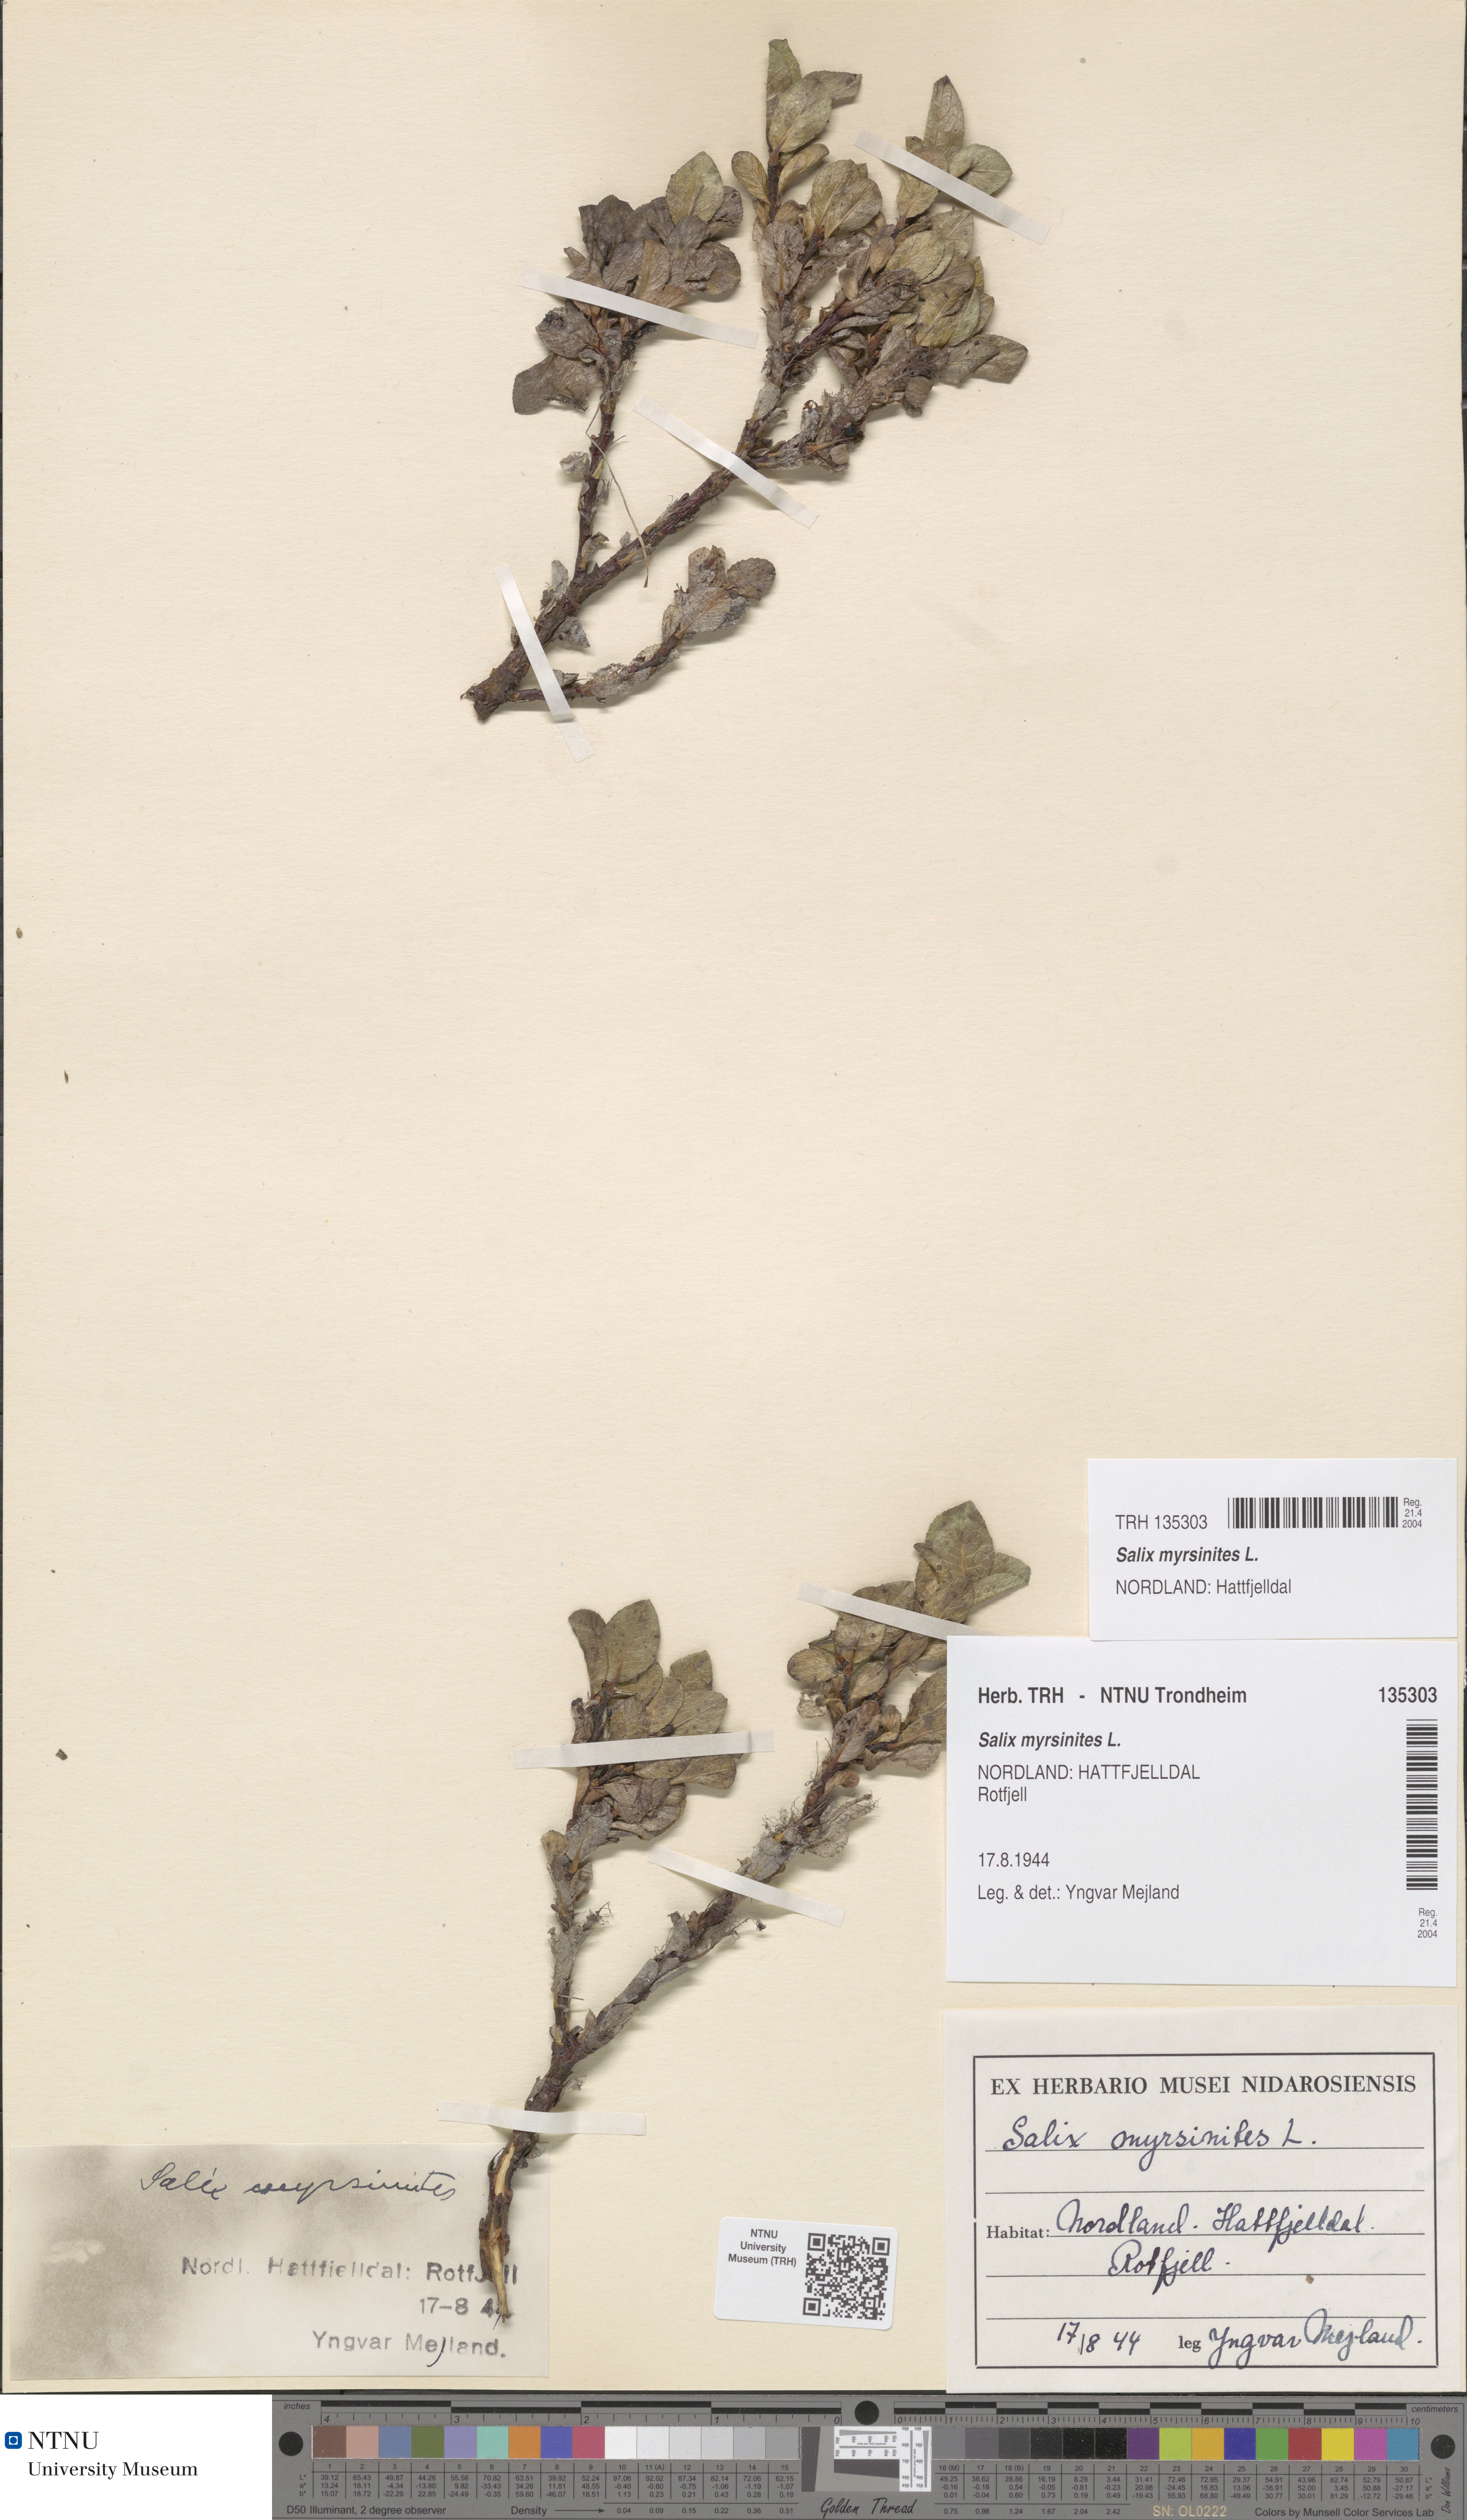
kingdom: Plantae
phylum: Tracheophyta
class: Magnoliopsida
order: Malpighiales
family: Salicaceae
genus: Salix
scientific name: Salix myrsinites
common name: Myrtle willow
